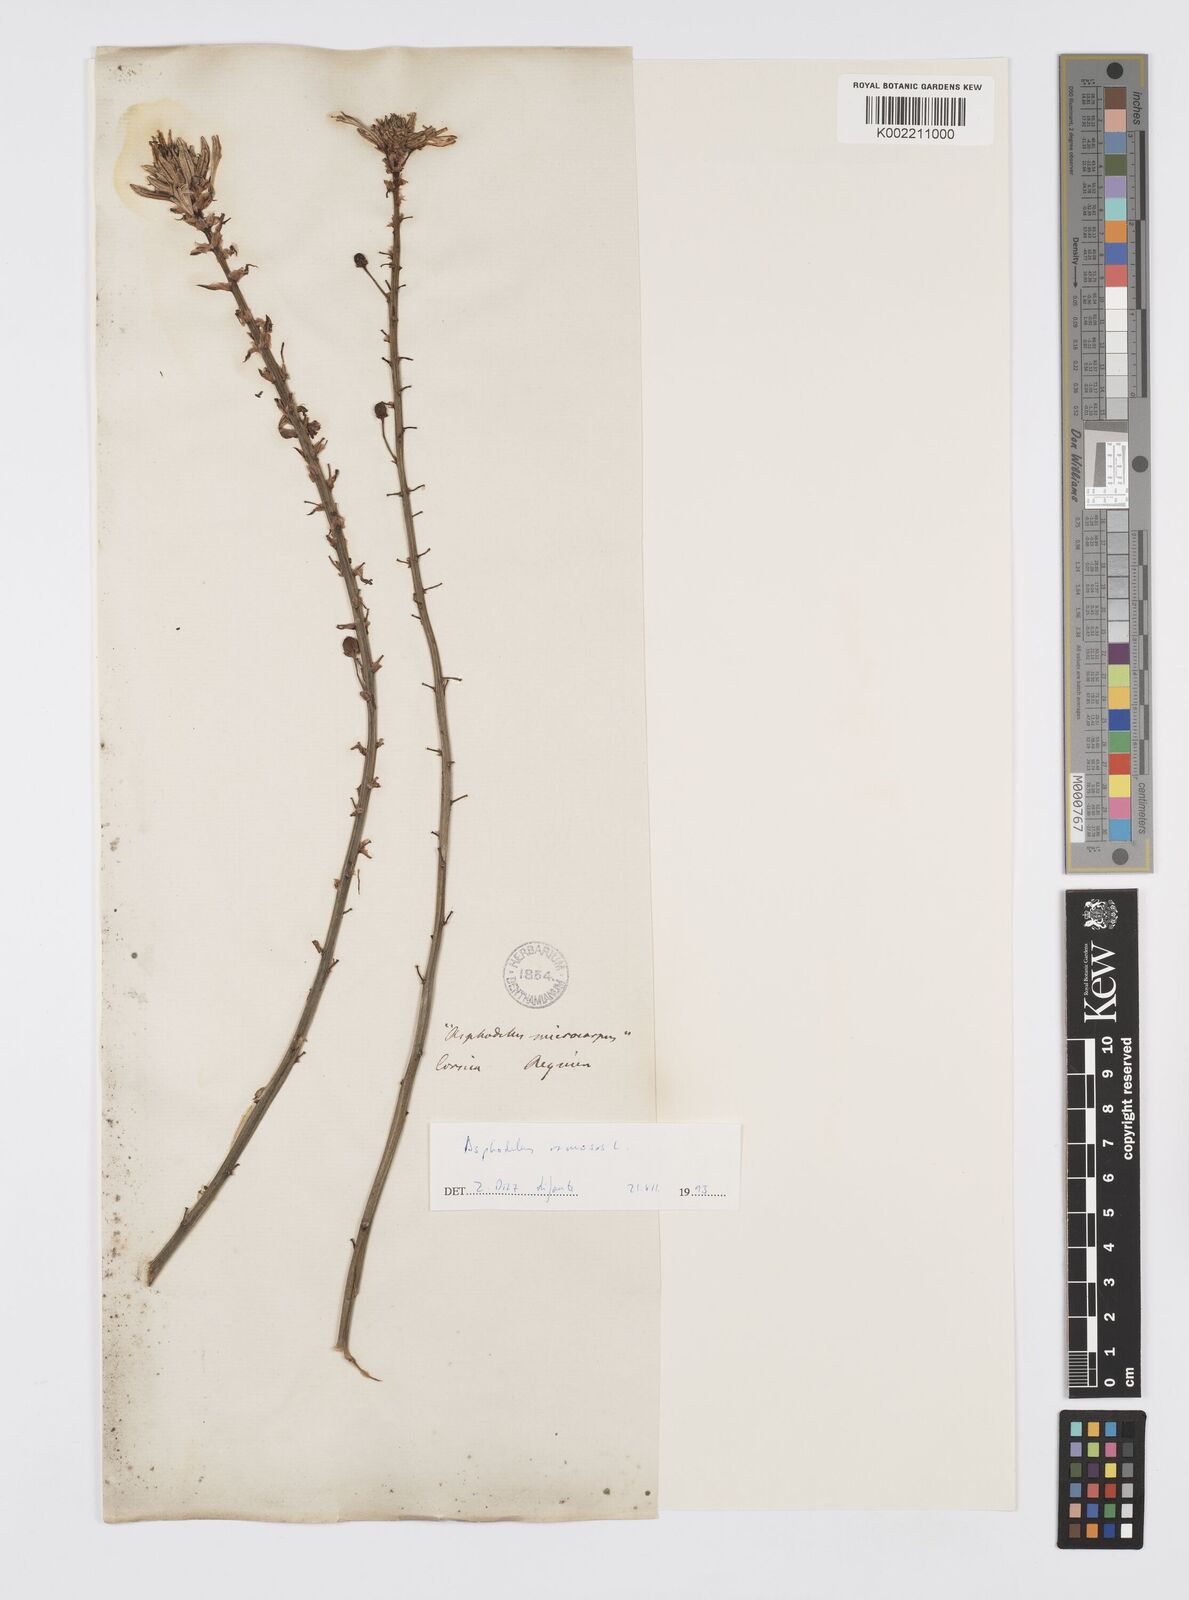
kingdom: Plantae
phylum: Tracheophyta
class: Liliopsida
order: Asparagales
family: Asphodelaceae
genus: Asphodelus
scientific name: Asphodelus fistulosus
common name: Onionweed
